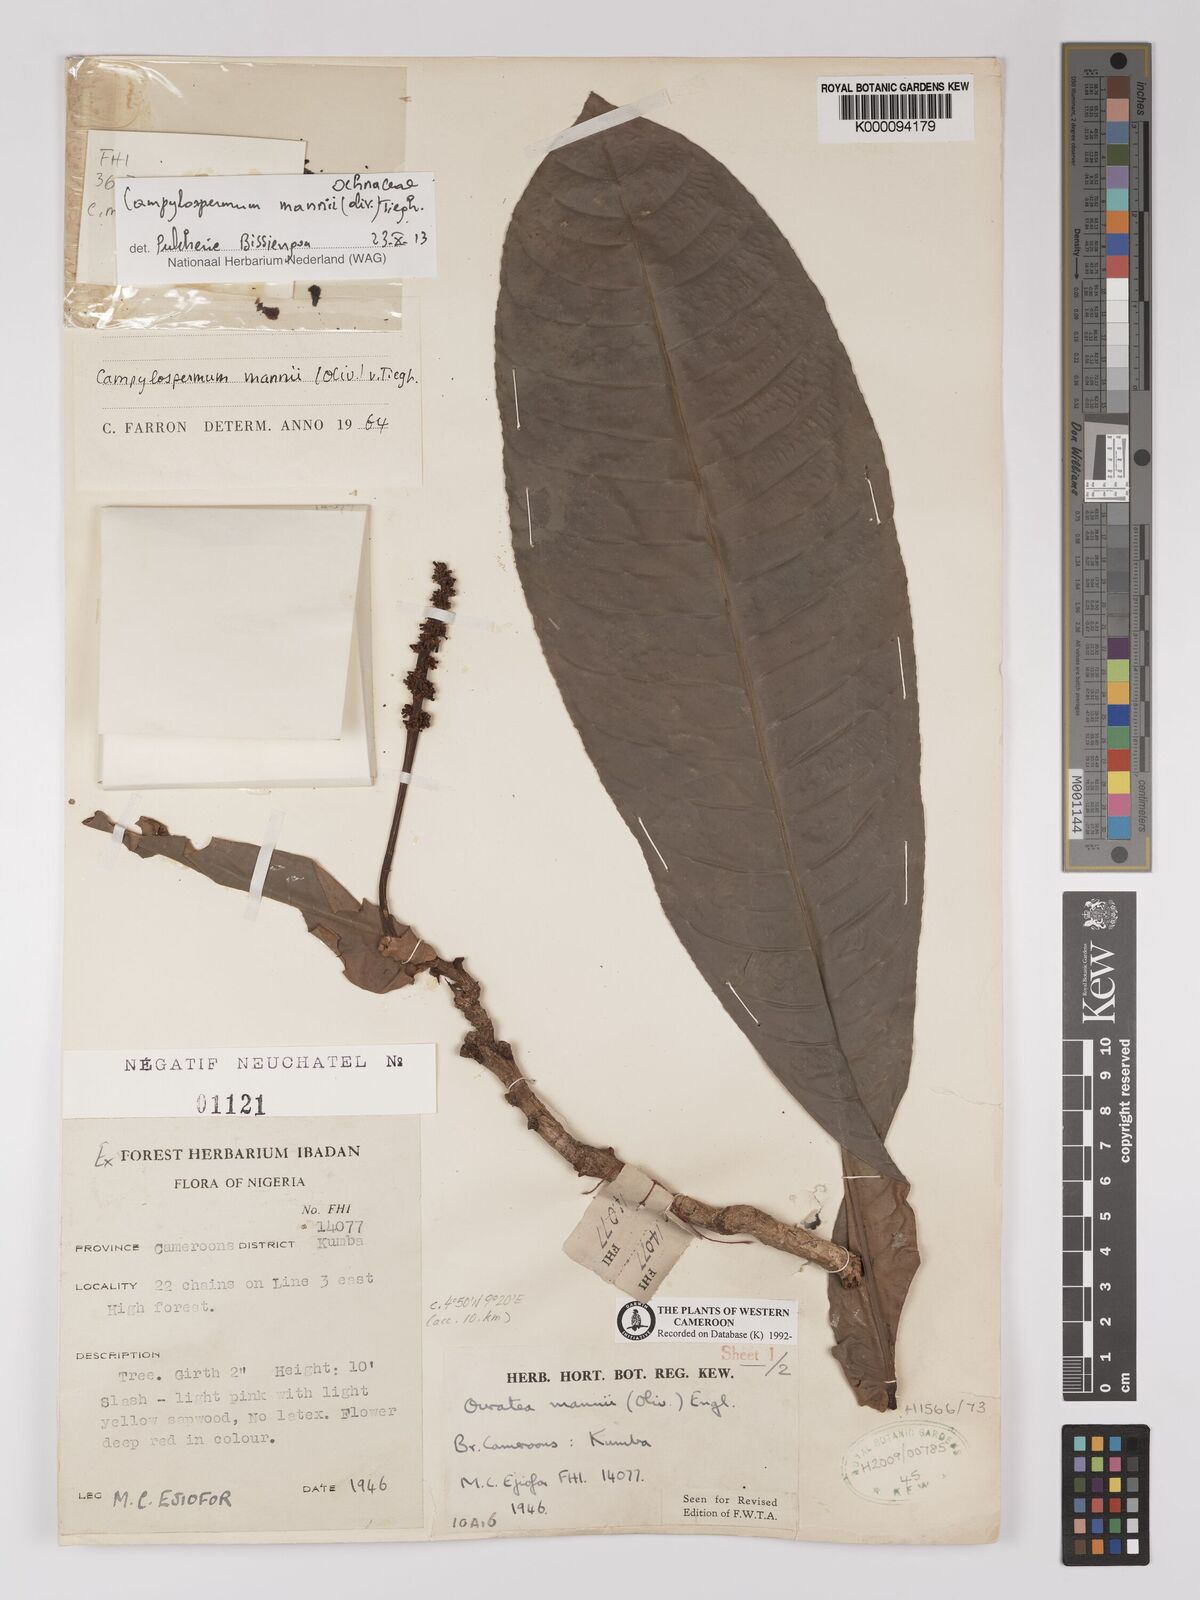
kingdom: Plantae
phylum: Tracheophyta
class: Magnoliopsida
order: Malpighiales
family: Ochnaceae
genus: Campylospermum
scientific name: Campylospermum mannii
